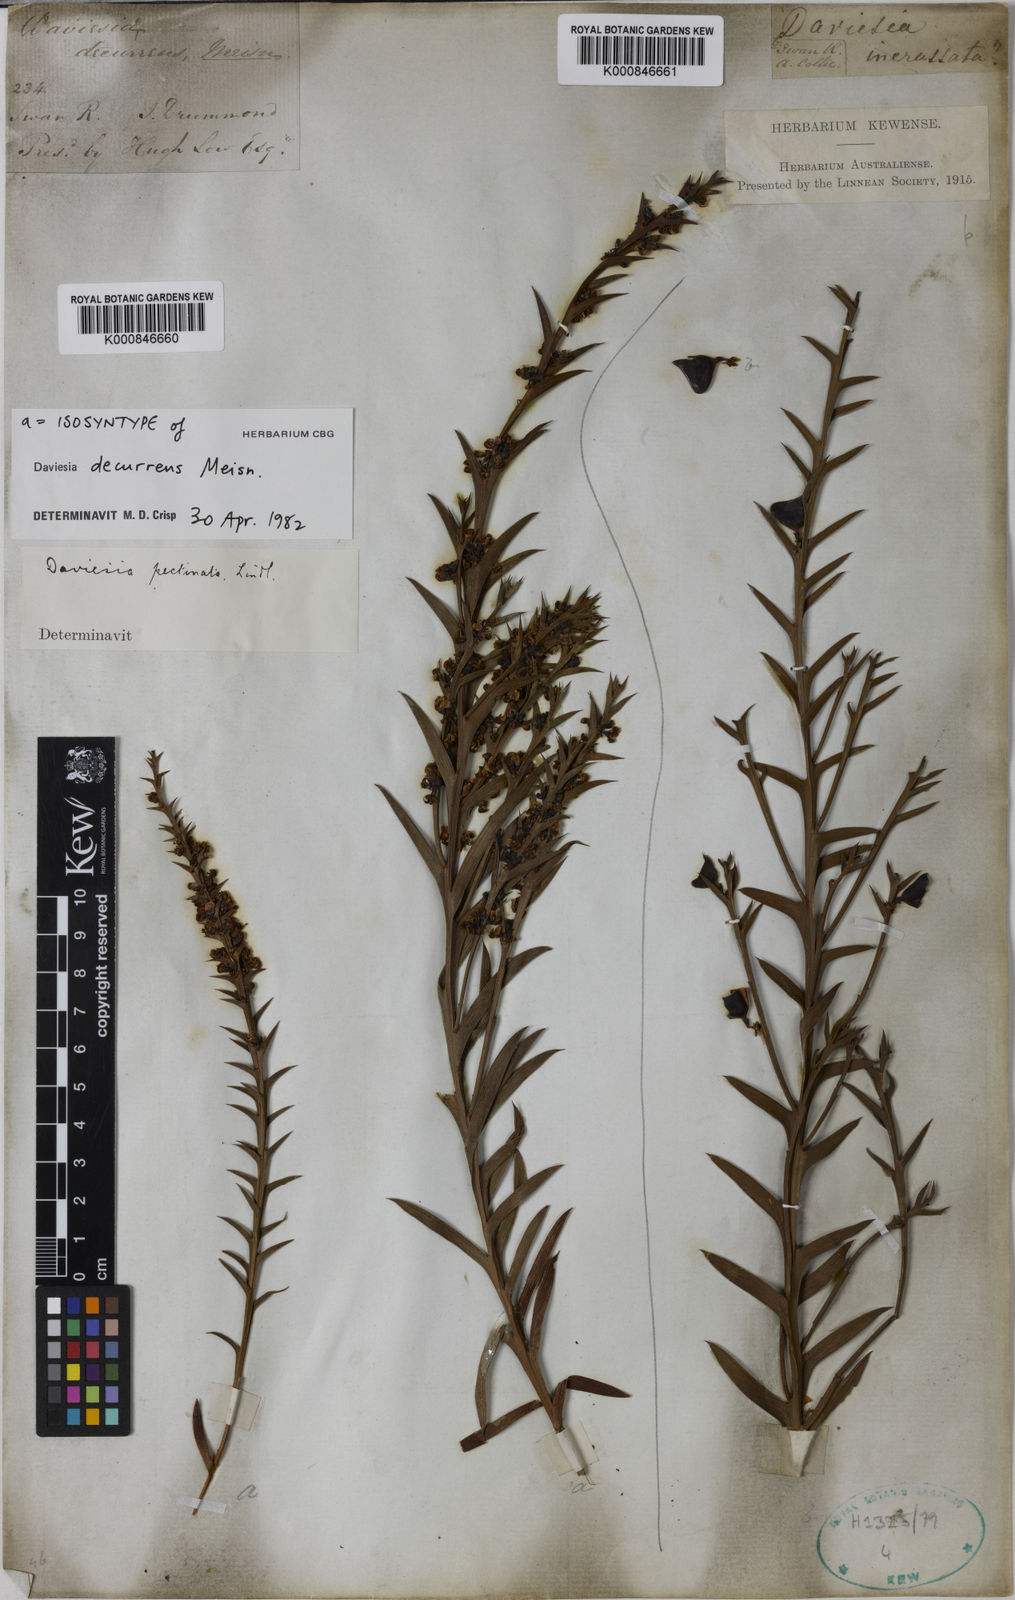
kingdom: Plantae
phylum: Tracheophyta
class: Magnoliopsida
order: Fabales
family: Fabaceae
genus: Daviesia
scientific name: Daviesia decurrens
